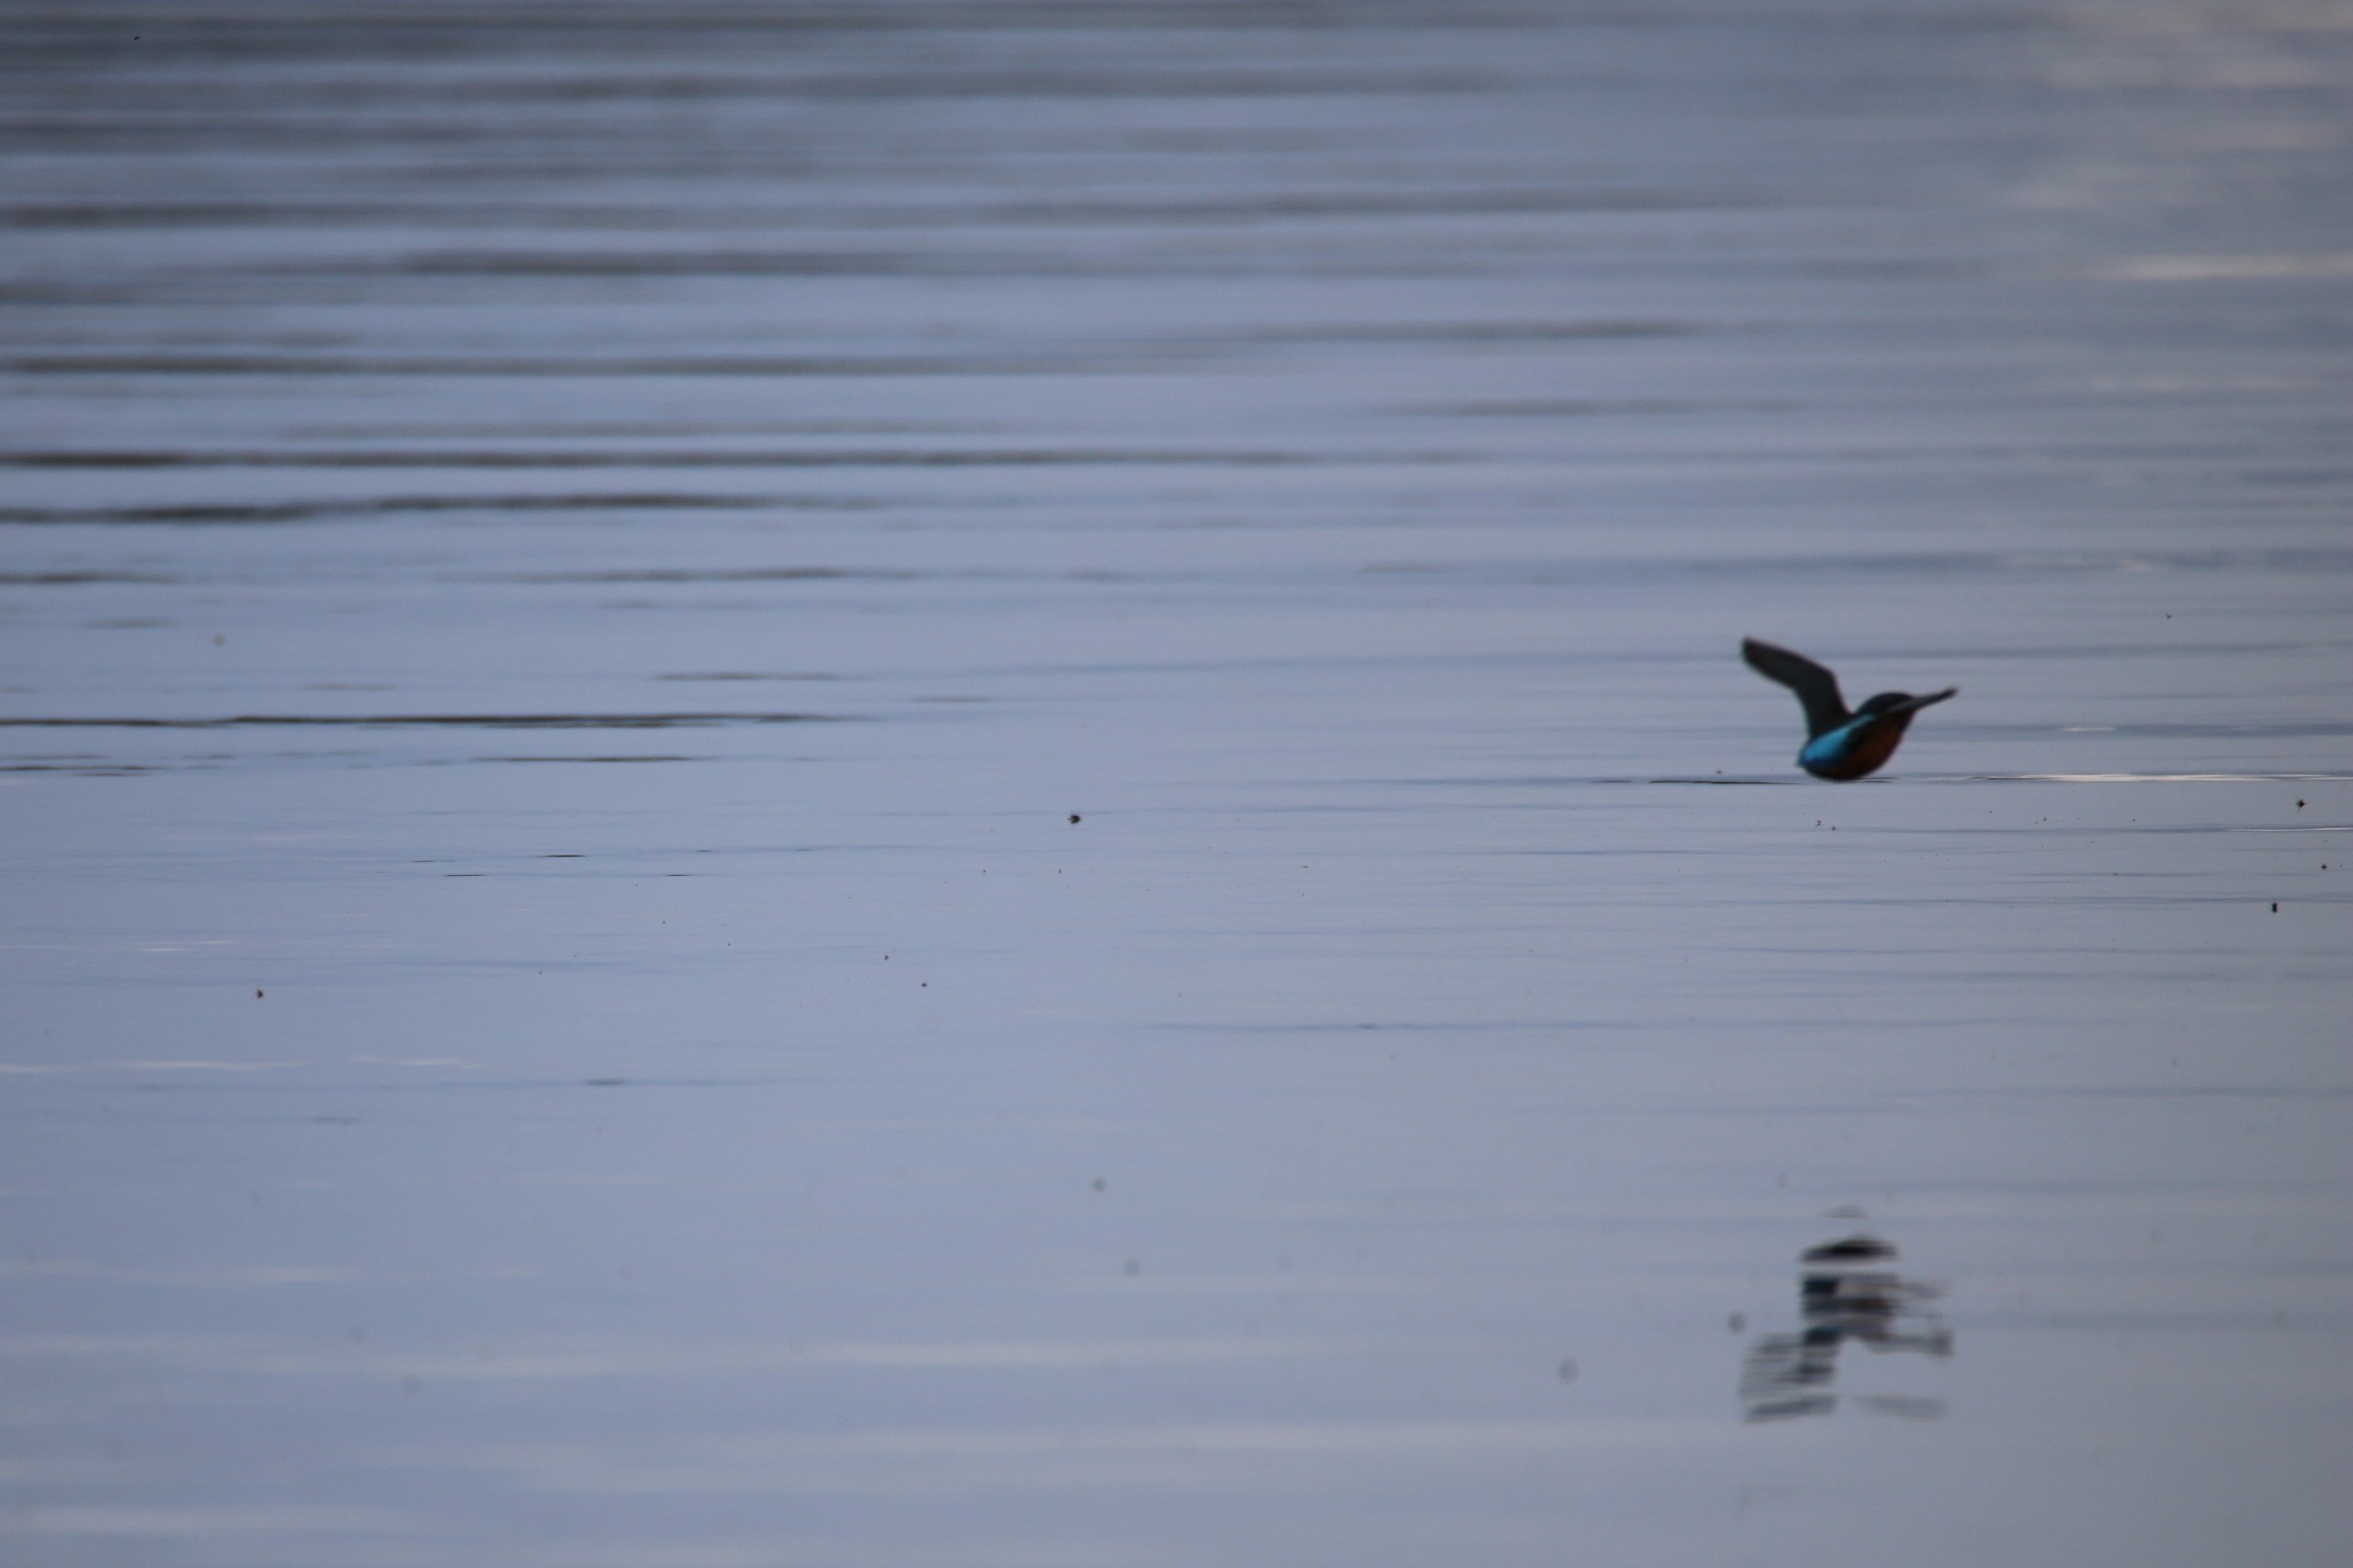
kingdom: Animalia
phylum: Chordata
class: Aves
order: Coraciiformes
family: Alcedinidae
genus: Alcedo
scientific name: Alcedo atthis
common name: Isfugl
